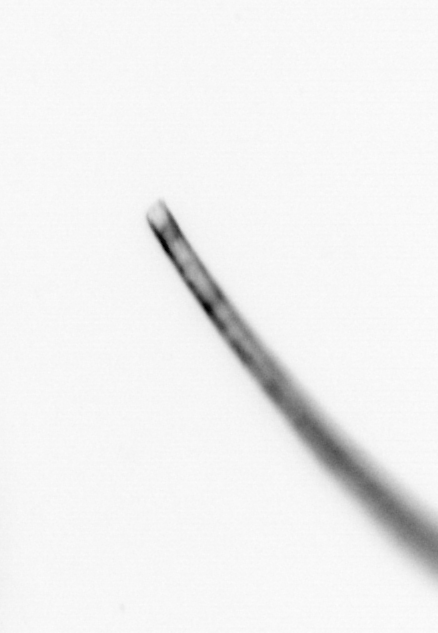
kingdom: Chromista
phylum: Ochrophyta
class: Bacillariophyceae
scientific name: Bacillariophyceae
